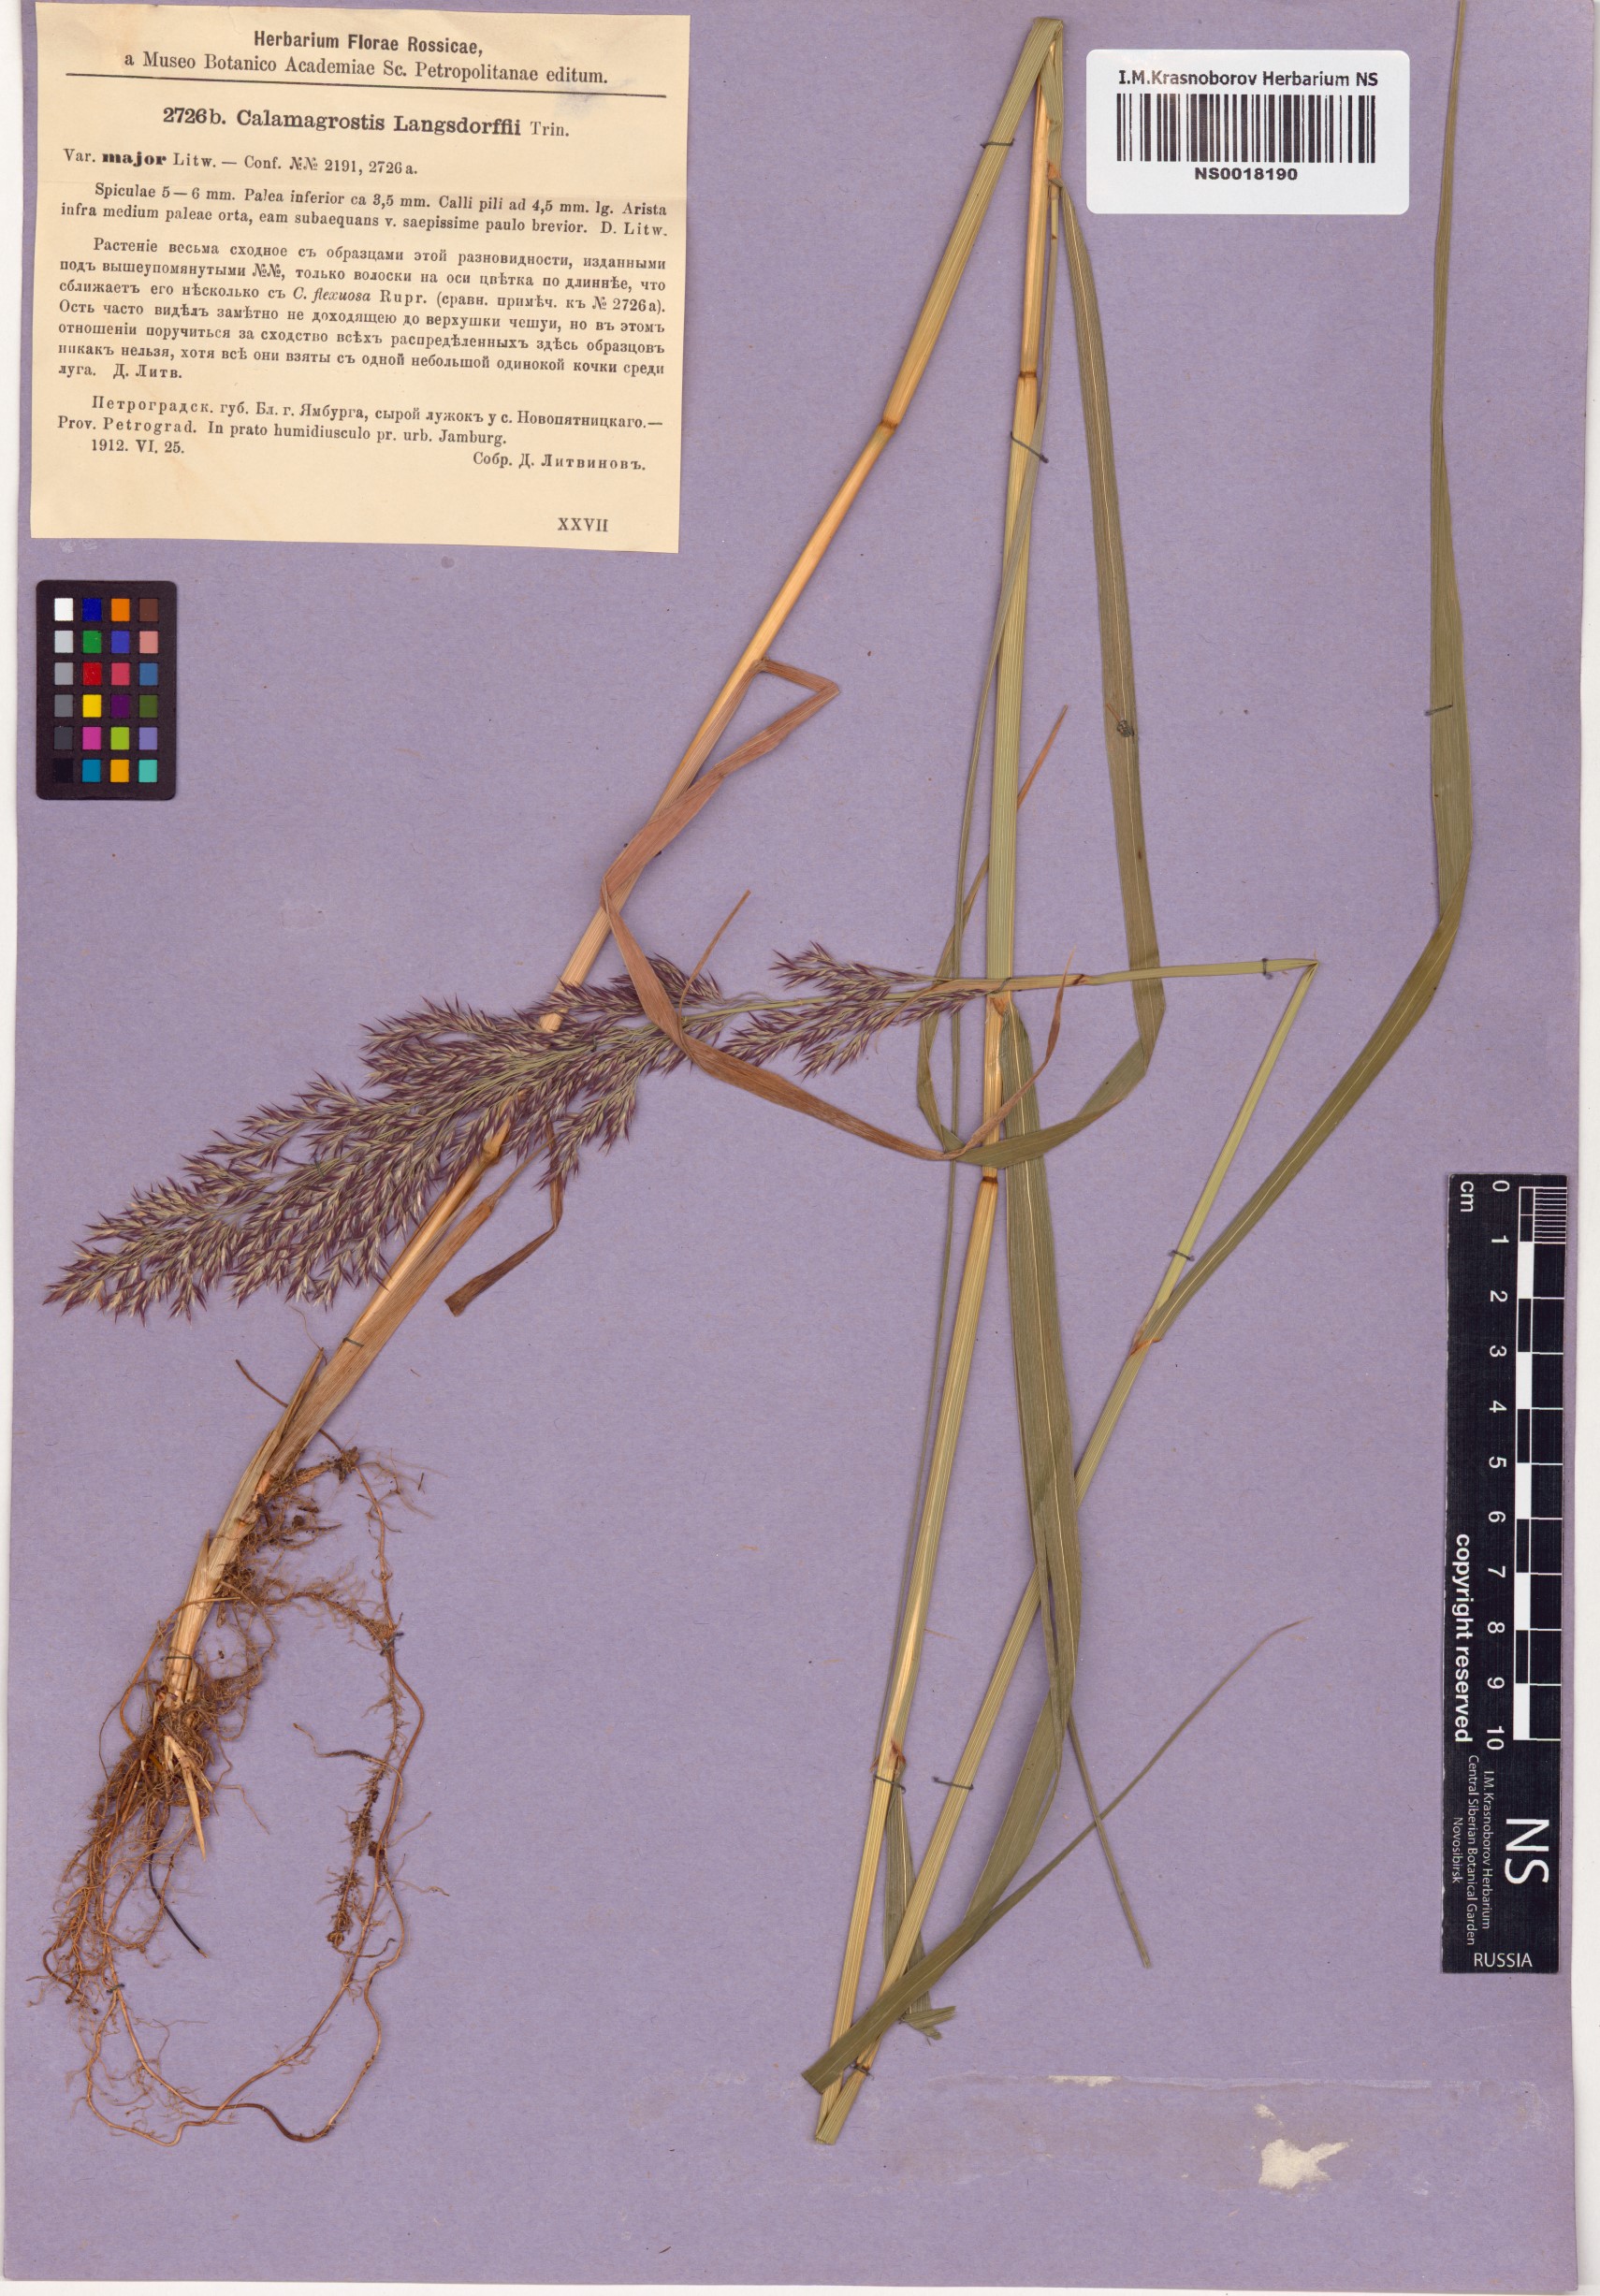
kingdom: Plantae
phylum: Tracheophyta
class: Liliopsida
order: Poales
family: Poaceae
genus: Calamagrostis
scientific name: Calamagrostis purpurea
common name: Scandinavian small-reed
